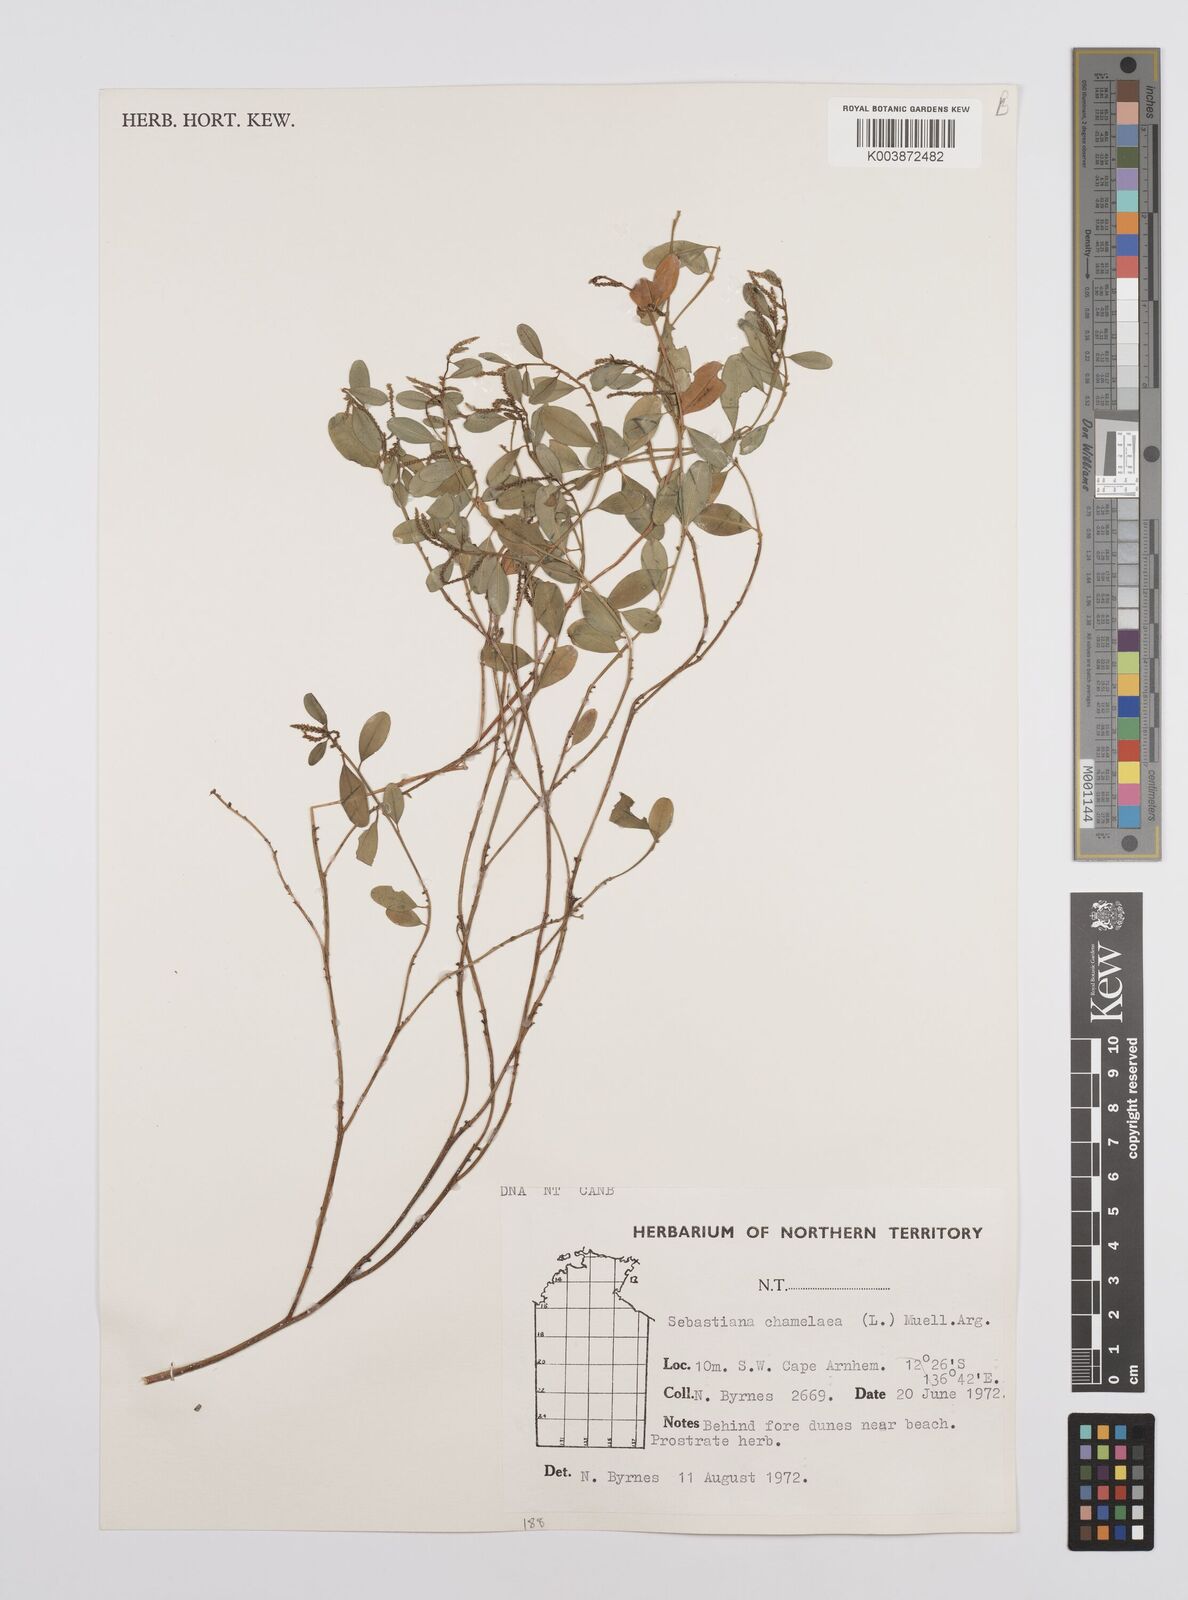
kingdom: Plantae
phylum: Tracheophyta
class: Magnoliopsida
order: Malpighiales
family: Euphorbiaceae
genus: Microstachys
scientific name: Microstachys chamaelea
